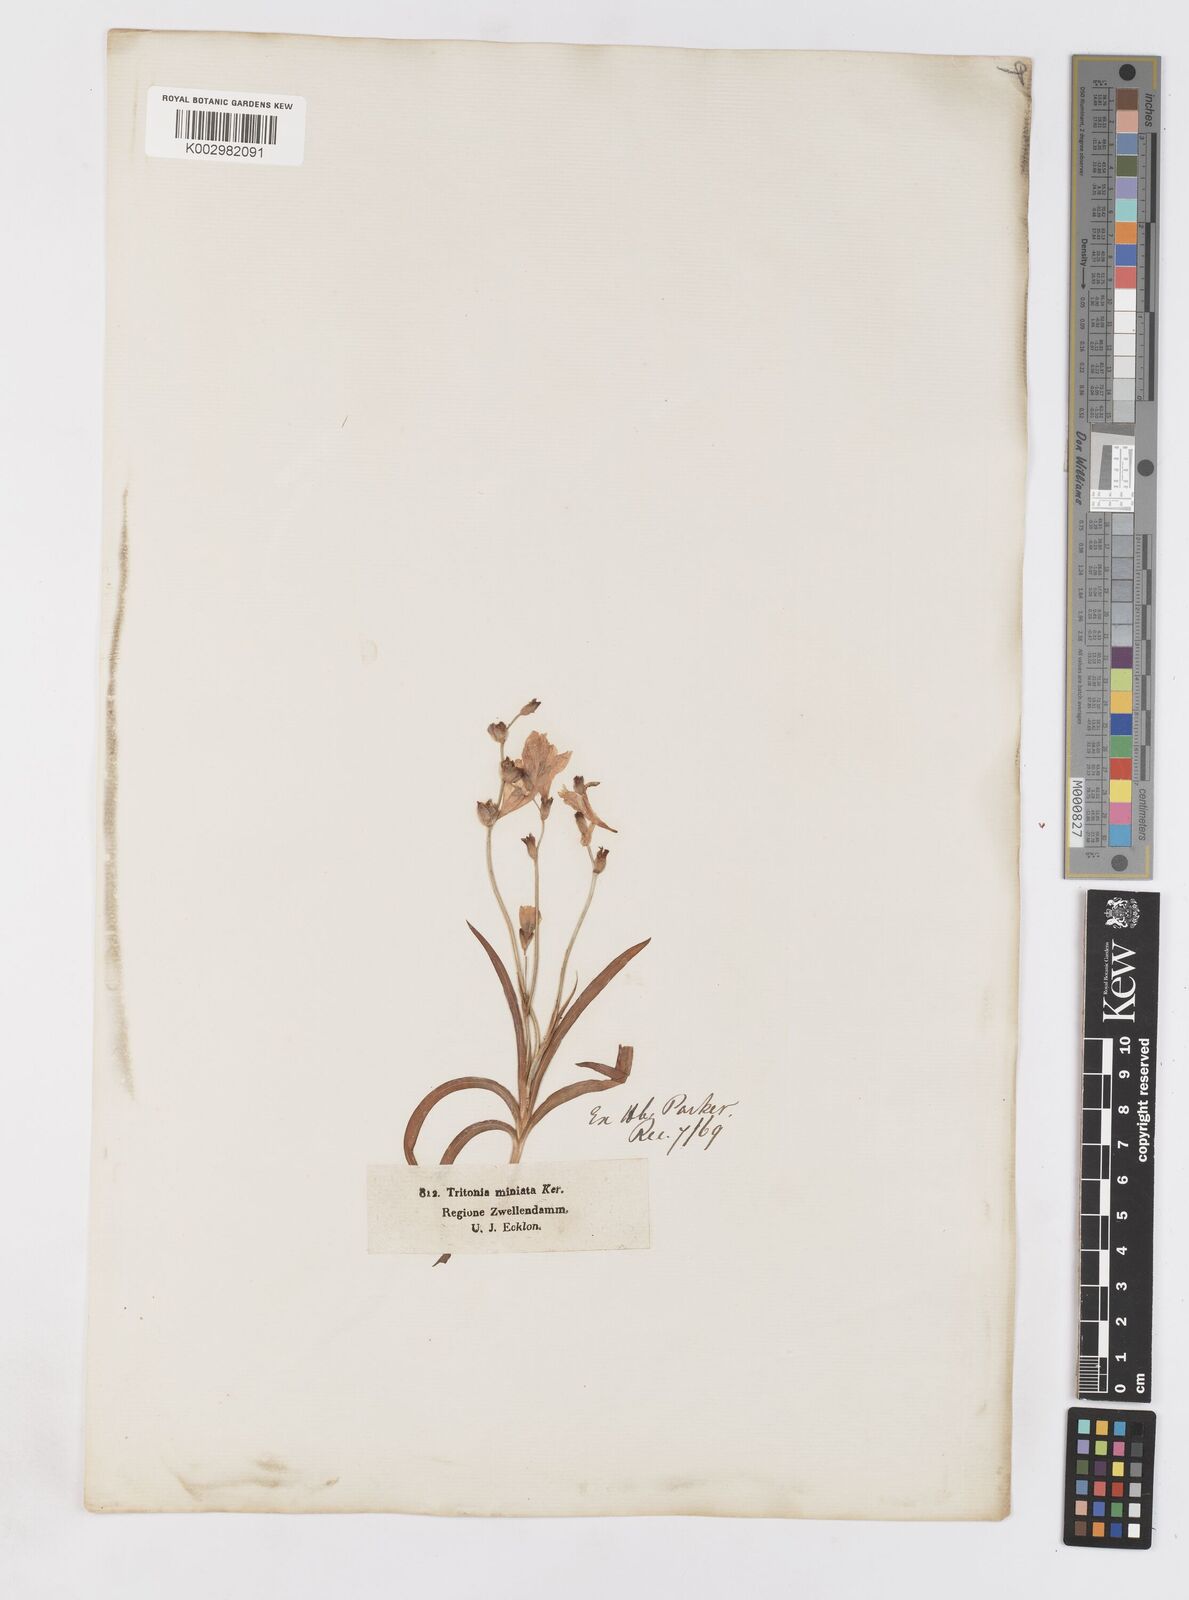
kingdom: Plantae
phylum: Tracheophyta
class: Liliopsida
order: Asparagales
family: Iridaceae
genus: Tritonia
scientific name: Tritonia crocata
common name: Flame-freesia
